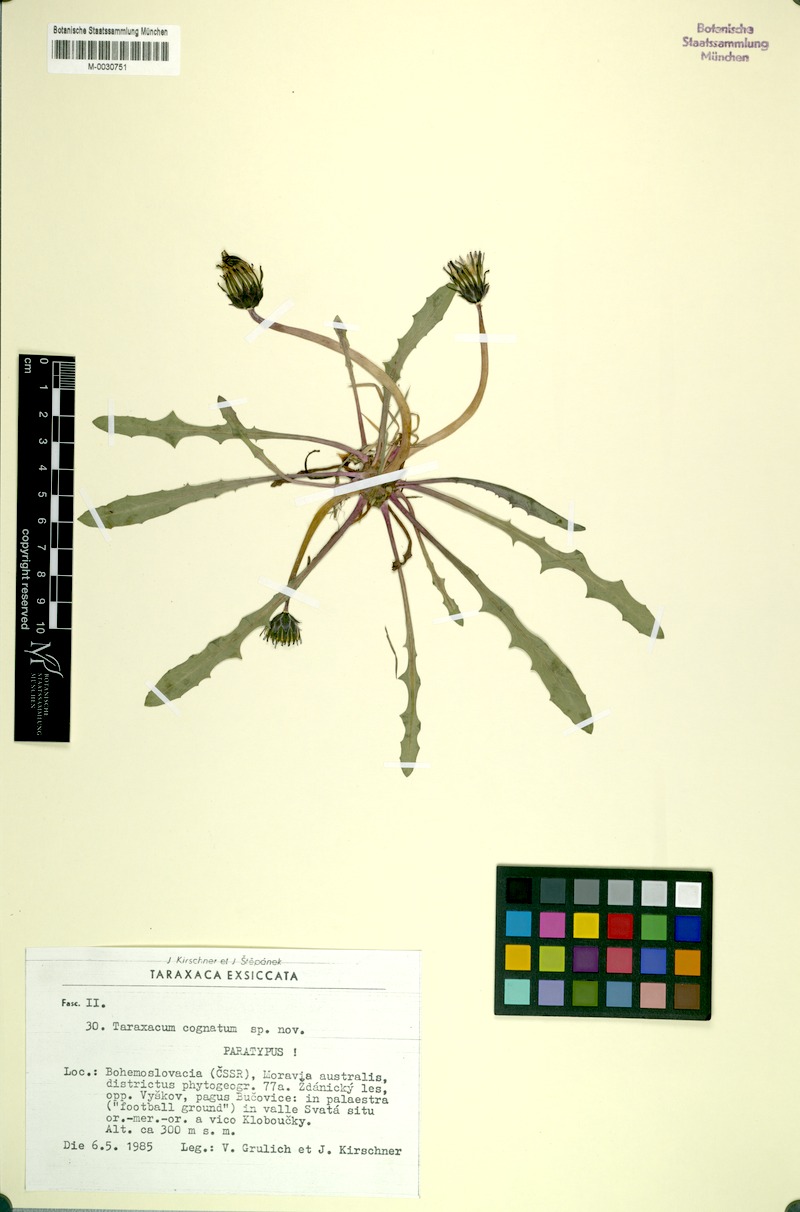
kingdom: Plantae
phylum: Tracheophyta
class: Magnoliopsida
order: Asterales
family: Asteraceae
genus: Taraxacum
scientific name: Taraxacum cognatum
